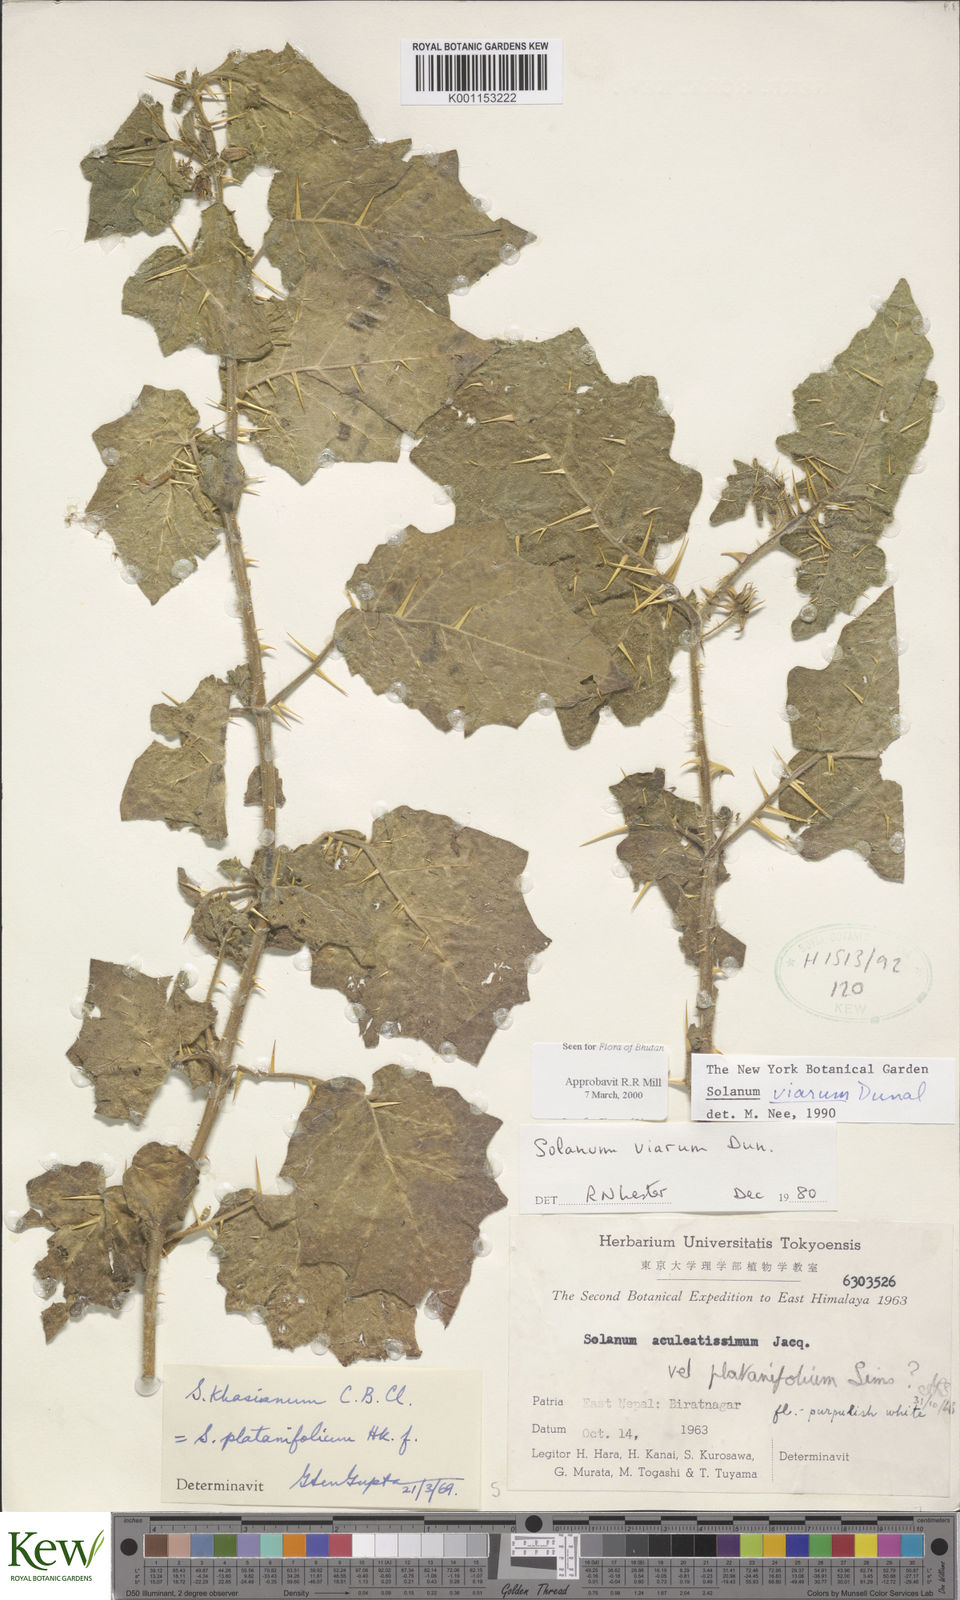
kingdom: Plantae
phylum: Tracheophyta
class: Magnoliopsida
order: Solanales
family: Solanaceae
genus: Solanum
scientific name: Solanum viarum
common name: Tropical soda apple
